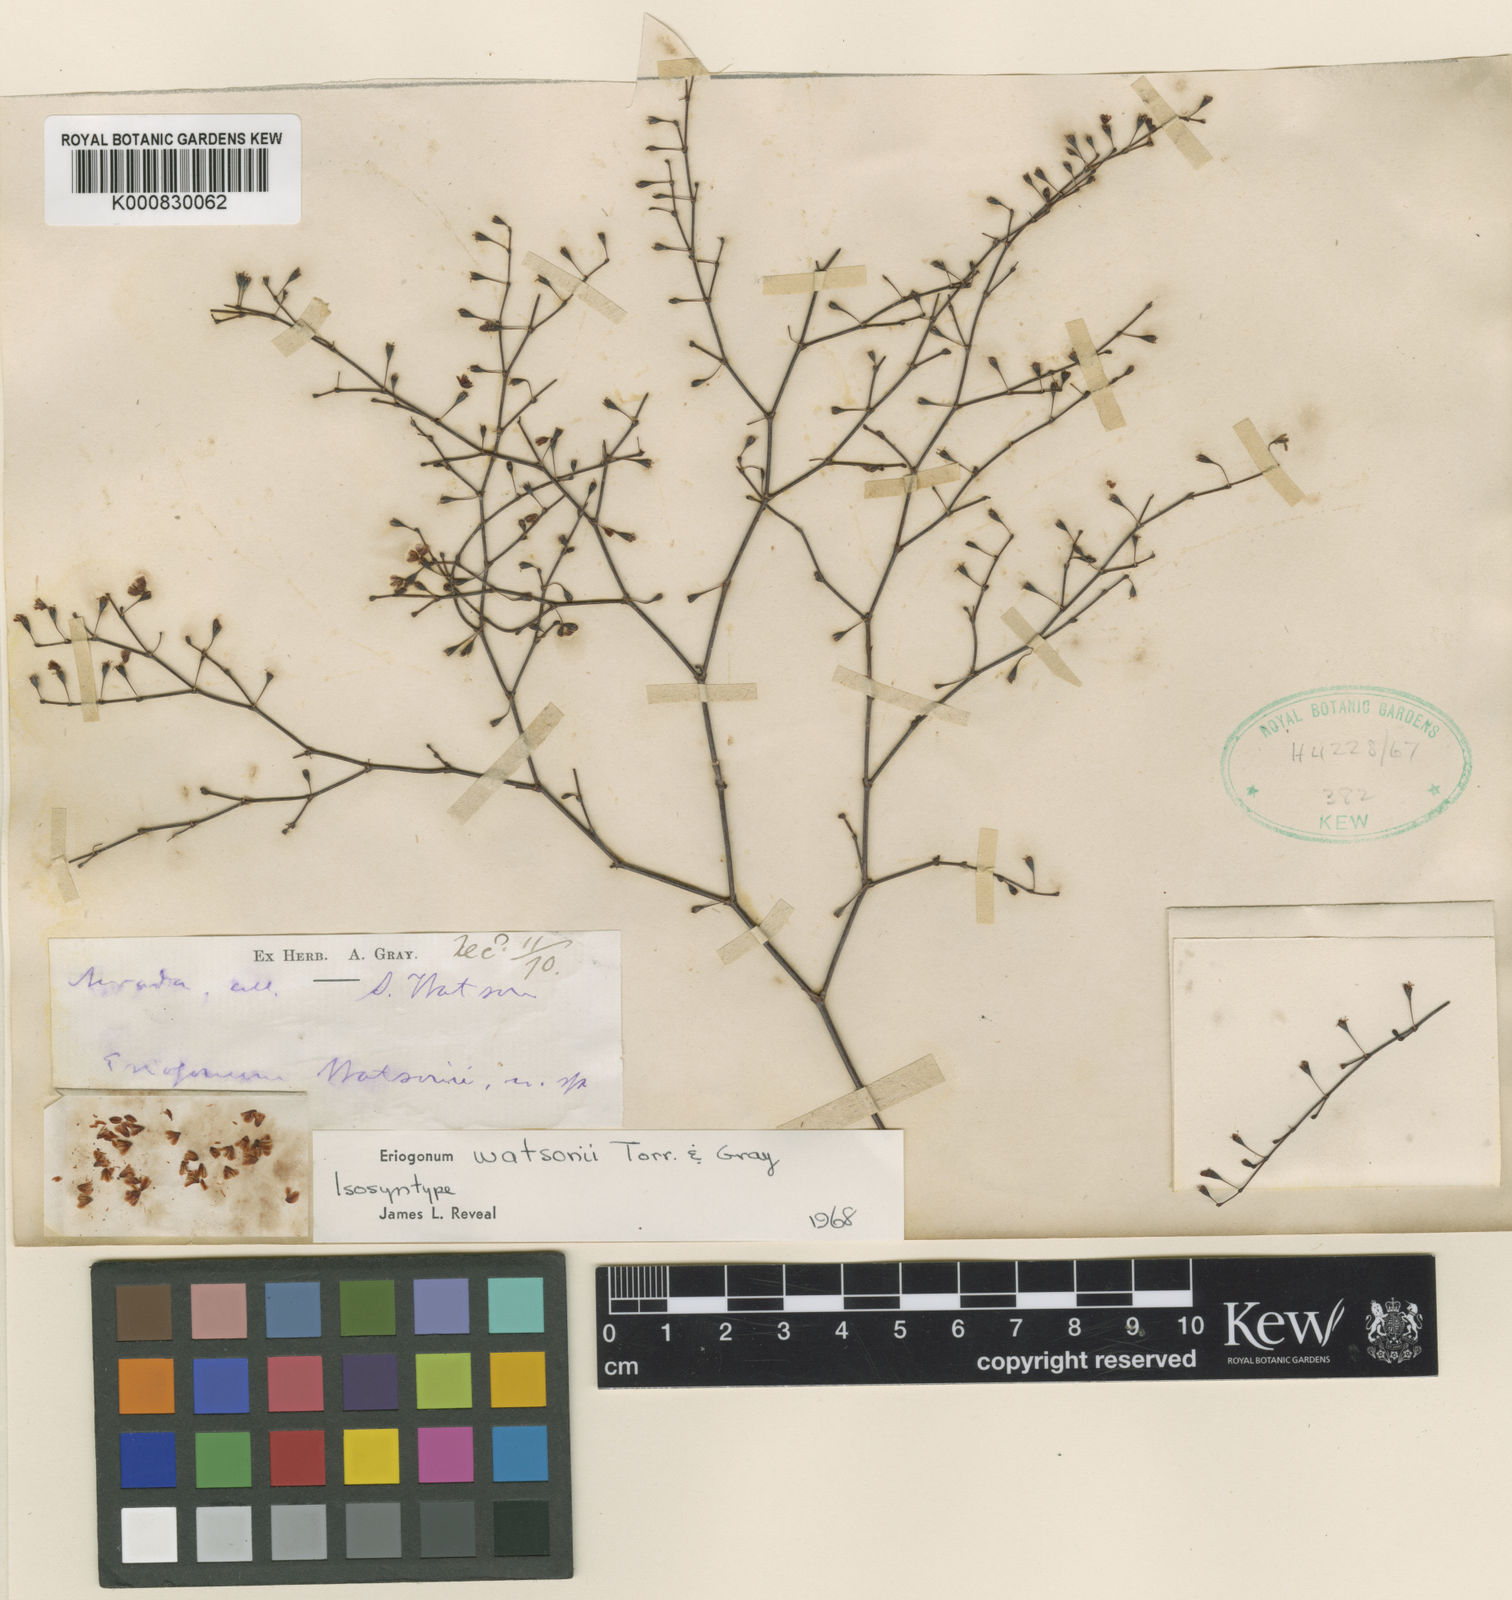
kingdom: Plantae
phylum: Tracheophyta
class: Magnoliopsida
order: Caryophyllales
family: Polygonaceae
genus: Eriogonum
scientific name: Eriogonum watsonii
